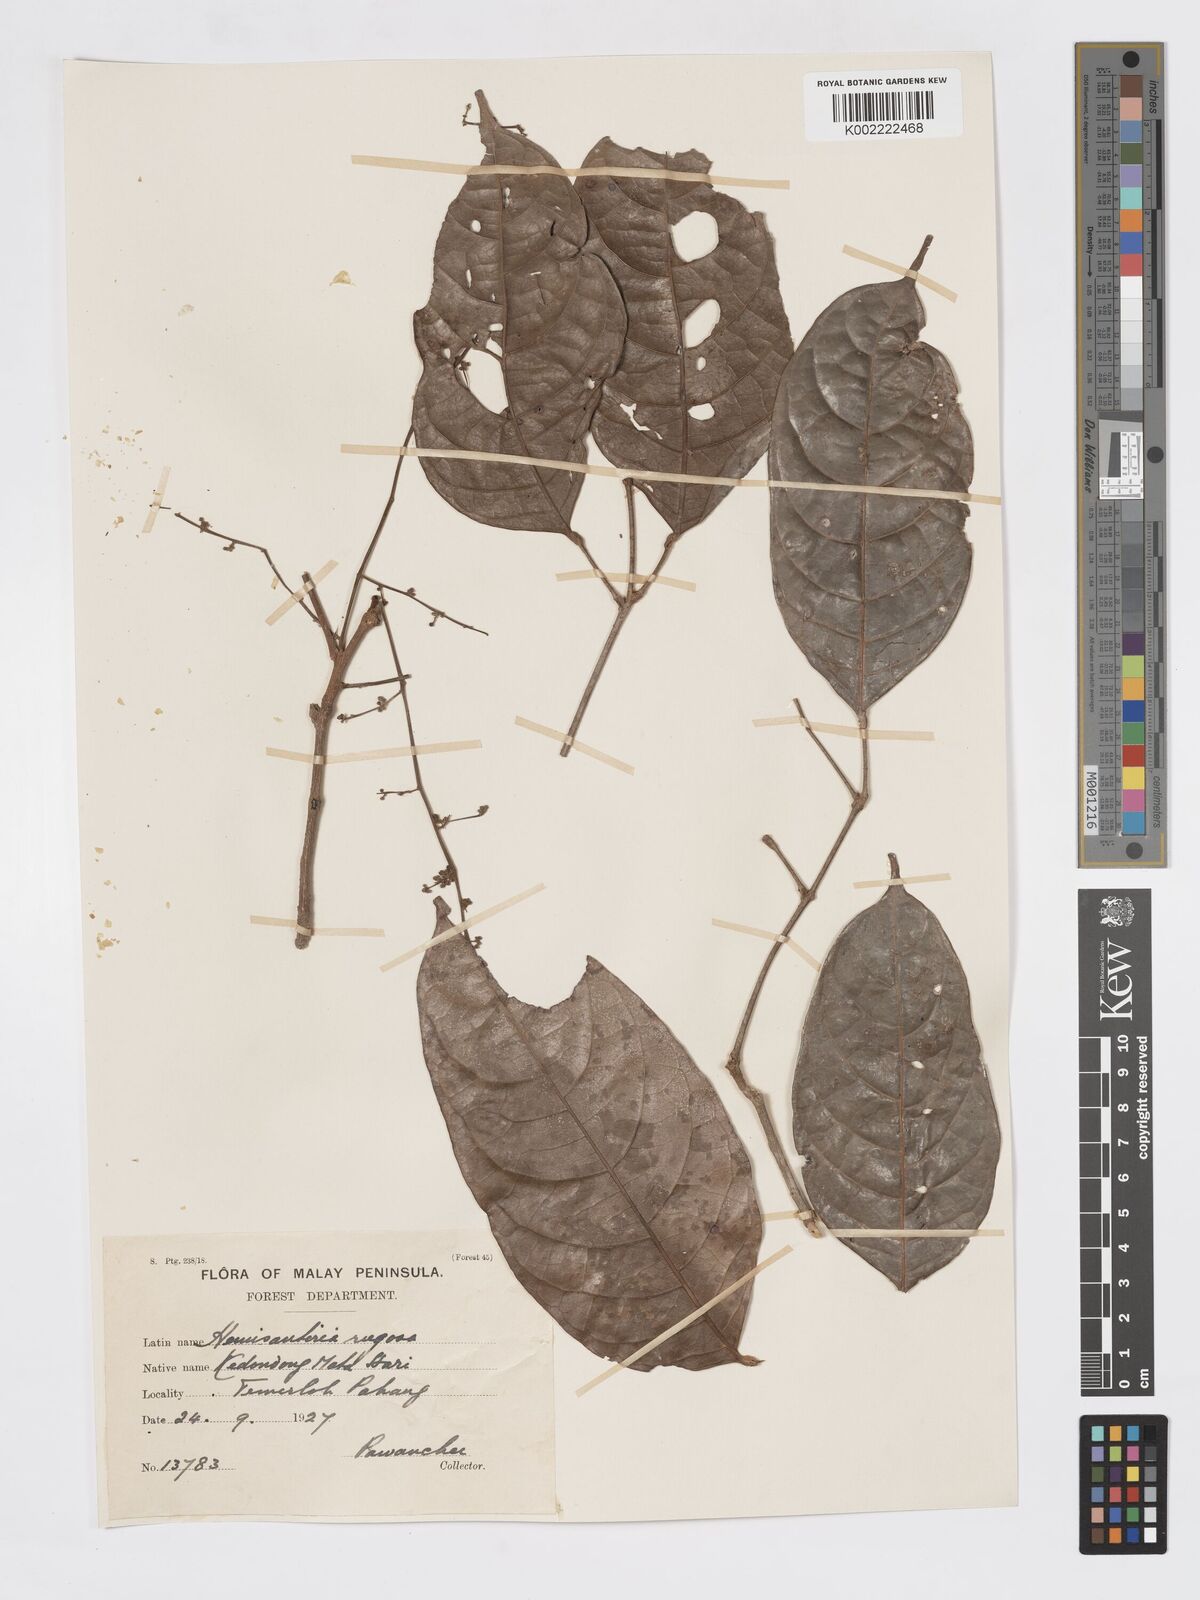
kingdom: Plantae
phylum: Tracheophyta
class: Magnoliopsida
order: Sapindales
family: Burseraceae
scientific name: Burseraceae
